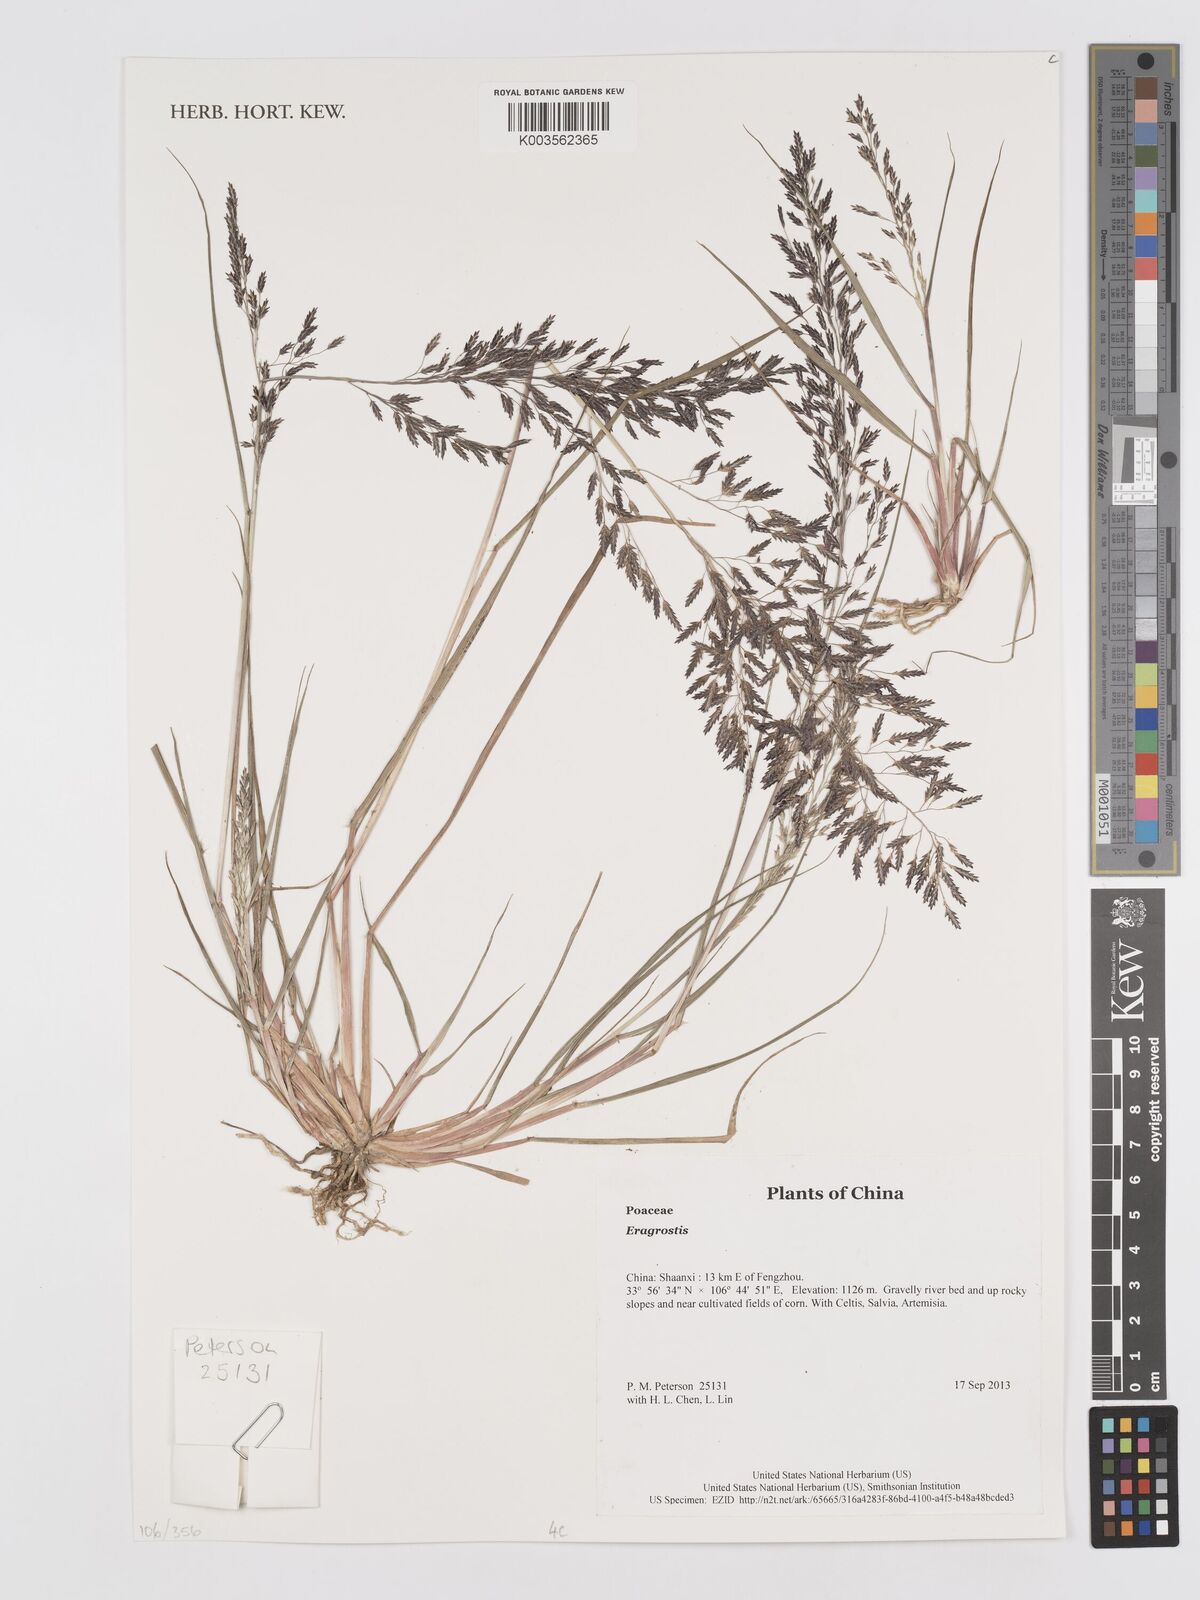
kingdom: Plantae
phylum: Tracheophyta
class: Liliopsida
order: Poales
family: Poaceae
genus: Eragrostis
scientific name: Eragrostis
